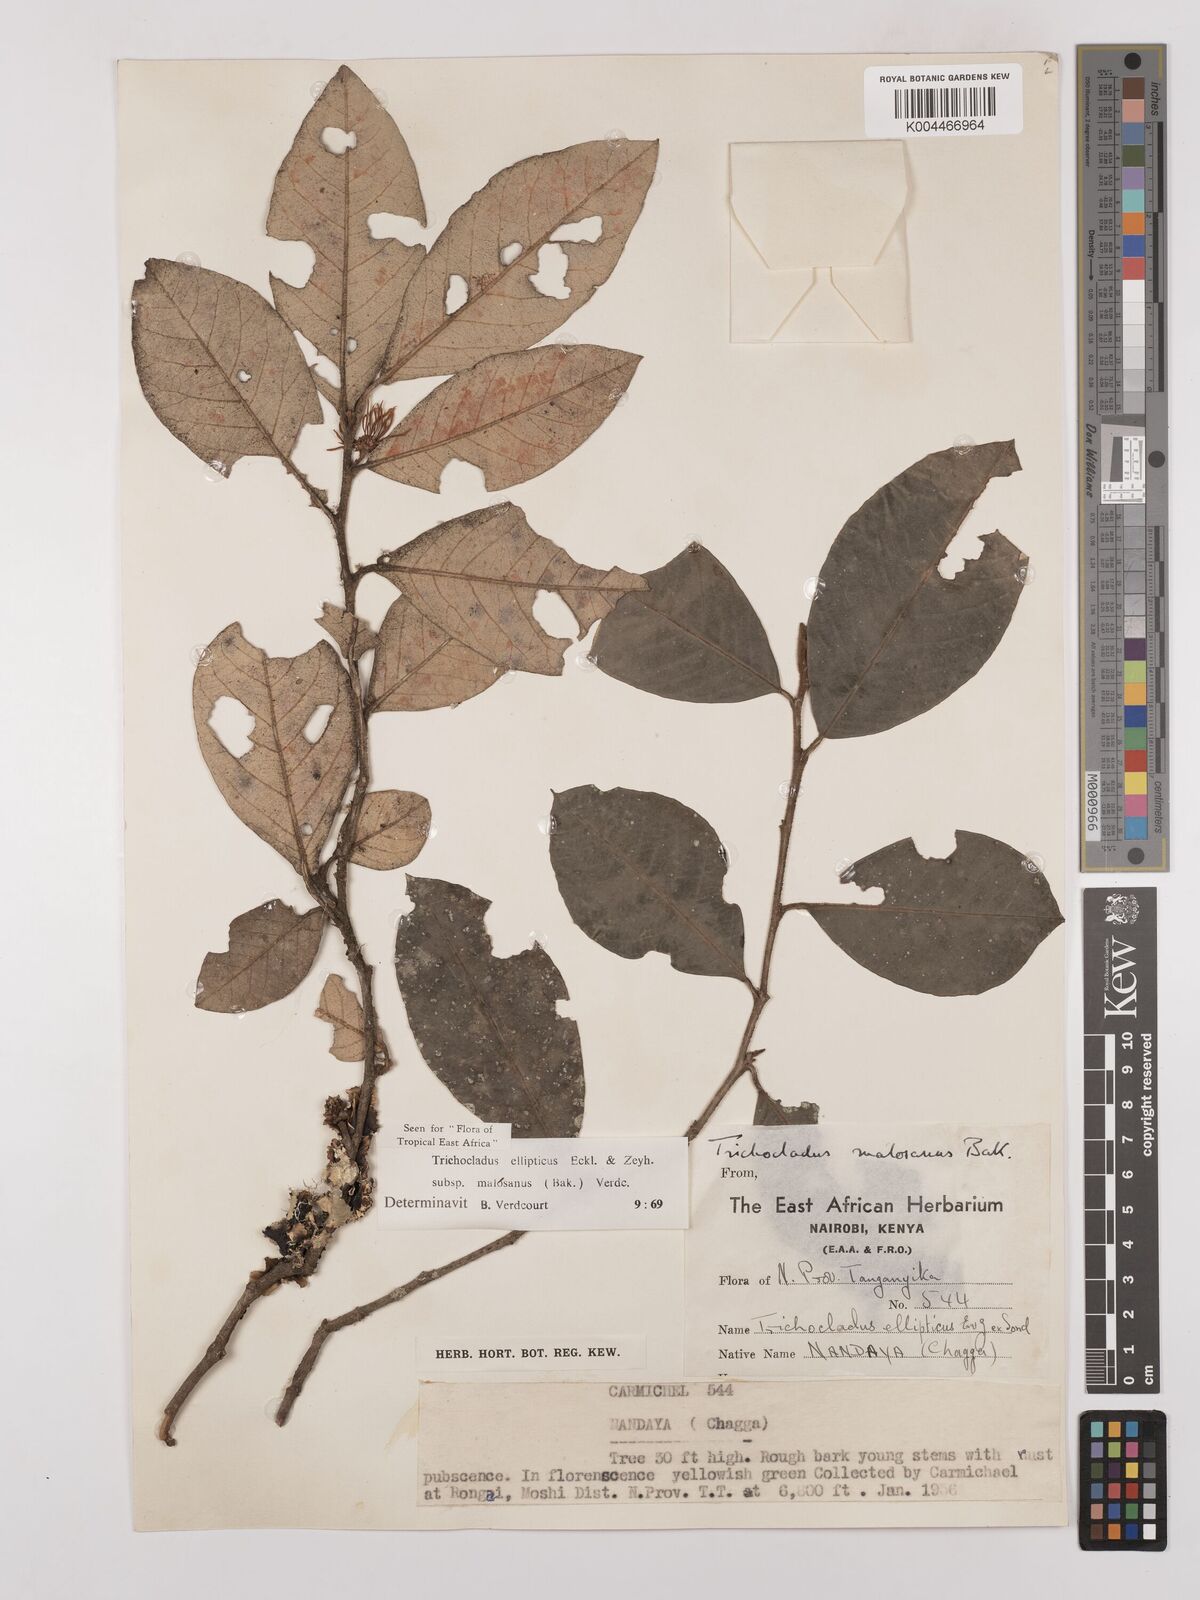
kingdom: Plantae
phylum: Tracheophyta
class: Magnoliopsida
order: Saxifragales
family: Hamamelidaceae
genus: Trichocladus
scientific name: Trichocladus ellipticus
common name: White witch-hazel
